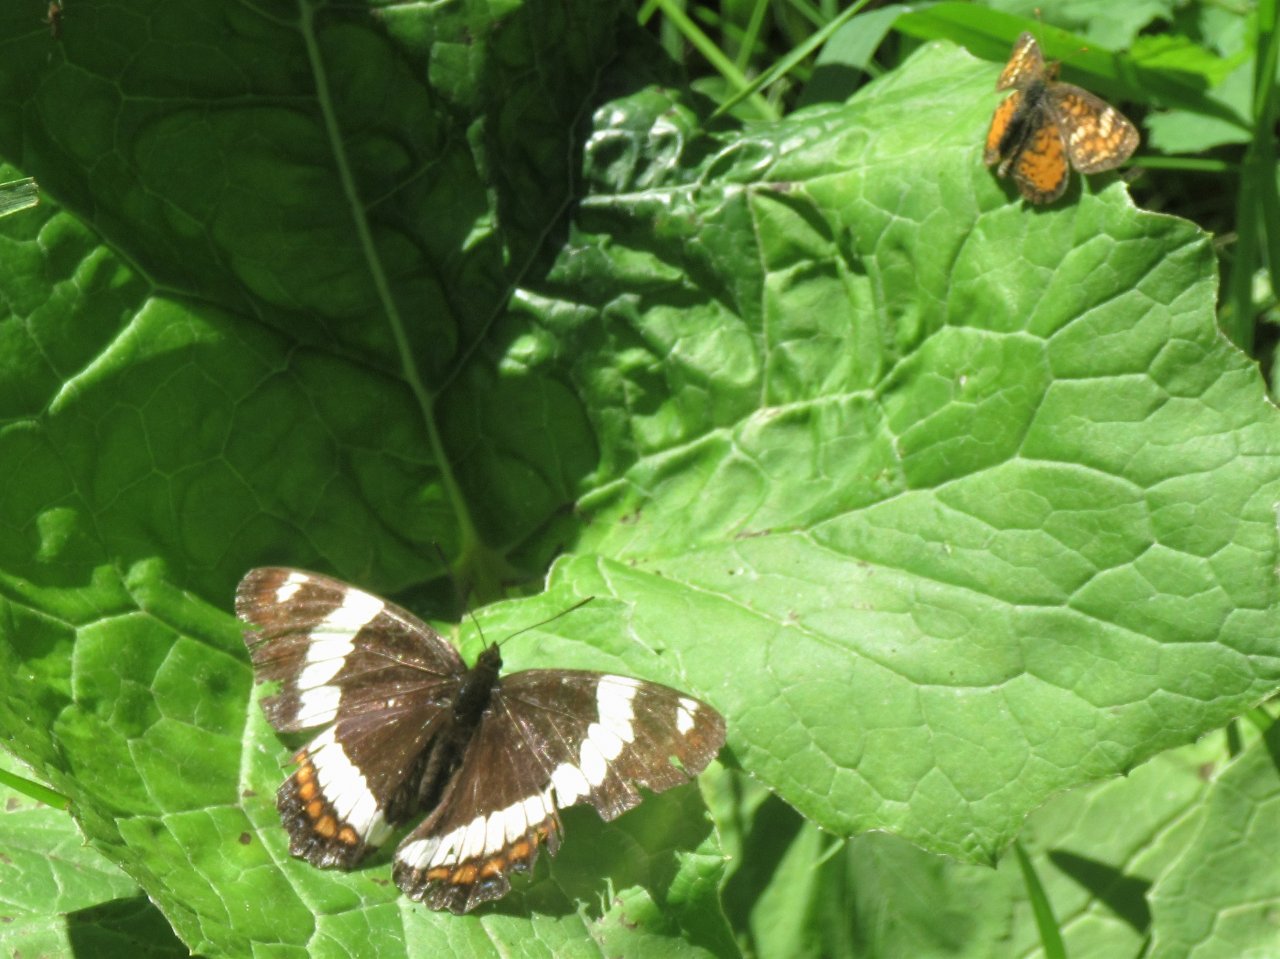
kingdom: Animalia
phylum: Arthropoda
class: Insecta
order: Lepidoptera
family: Nymphalidae
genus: Limenitis
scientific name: Limenitis arthemis
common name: Red-spotted Admiral
